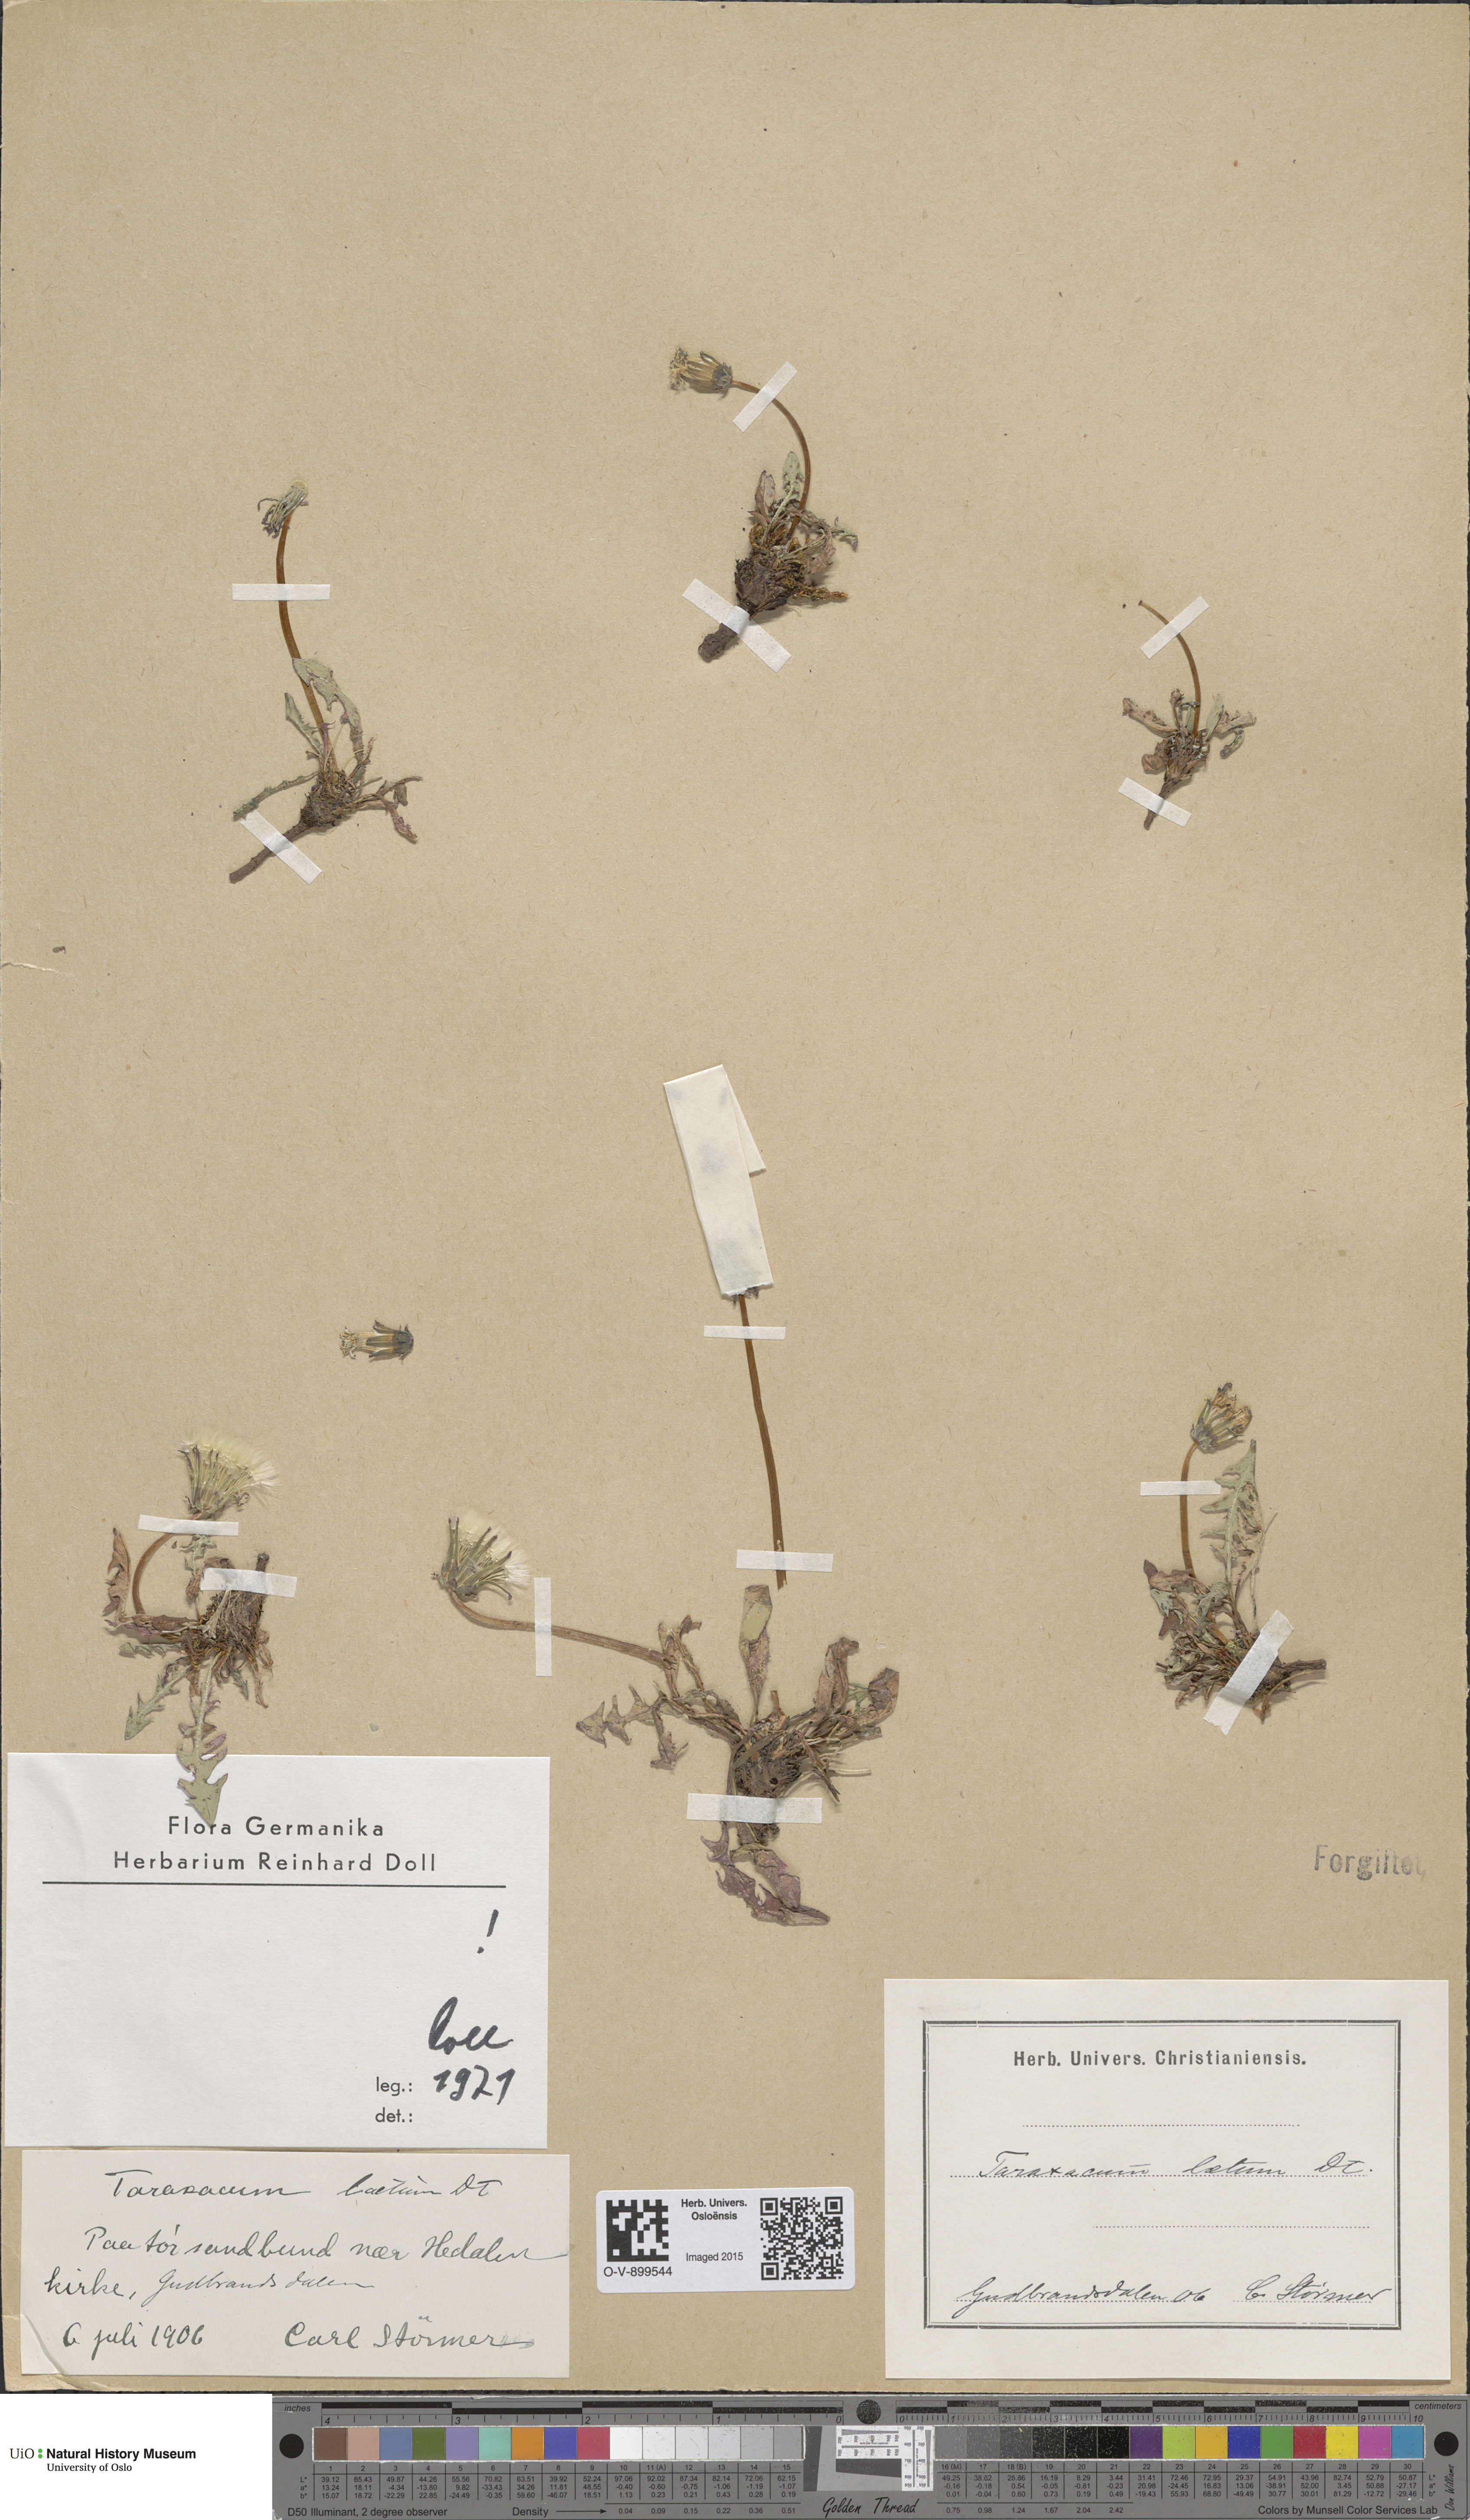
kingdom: Plantae
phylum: Tracheophyta
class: Magnoliopsida
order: Asterales
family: Asteraceae
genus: Taraxacum
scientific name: Taraxacum laetum
